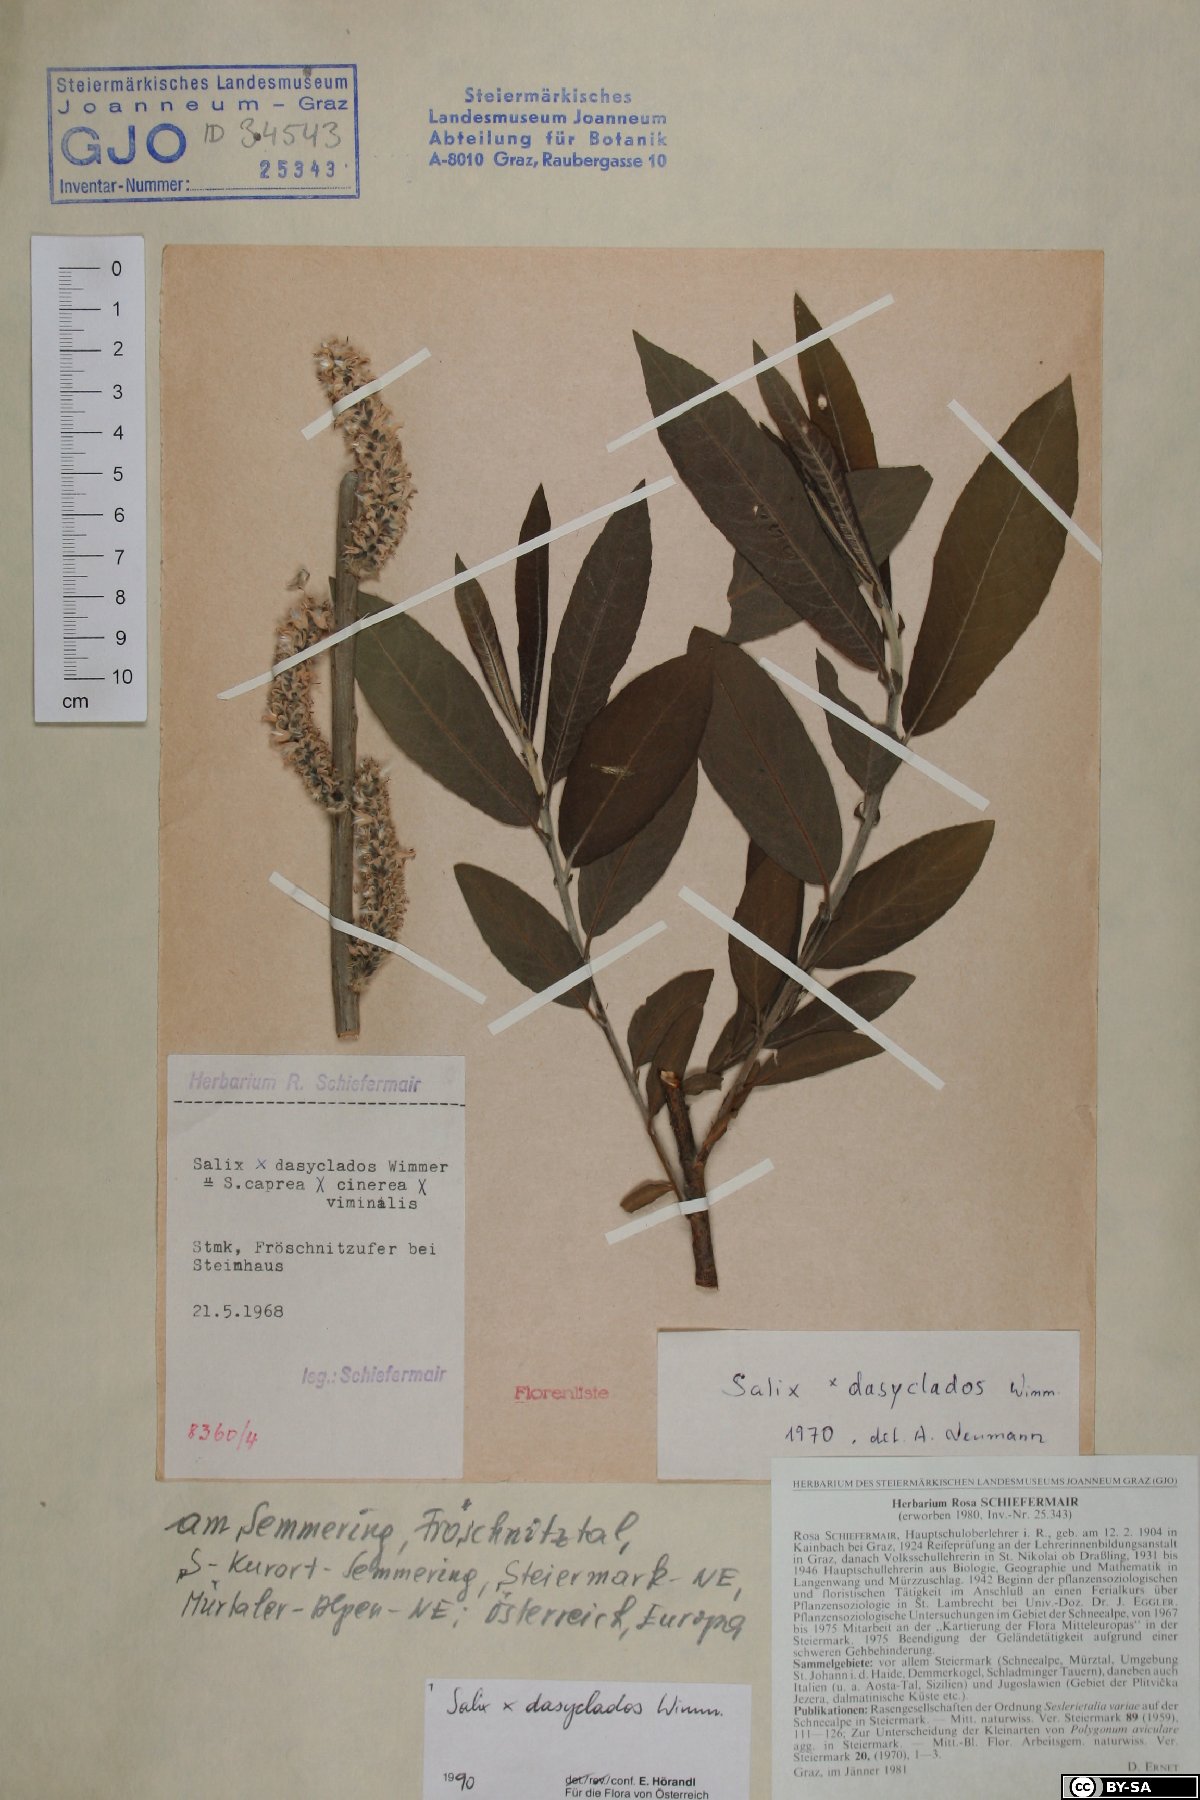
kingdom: Plantae
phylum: Tracheophyta
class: Magnoliopsida
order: Malpighiales
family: Salicaceae
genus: Salix
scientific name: Salix gmelinii
